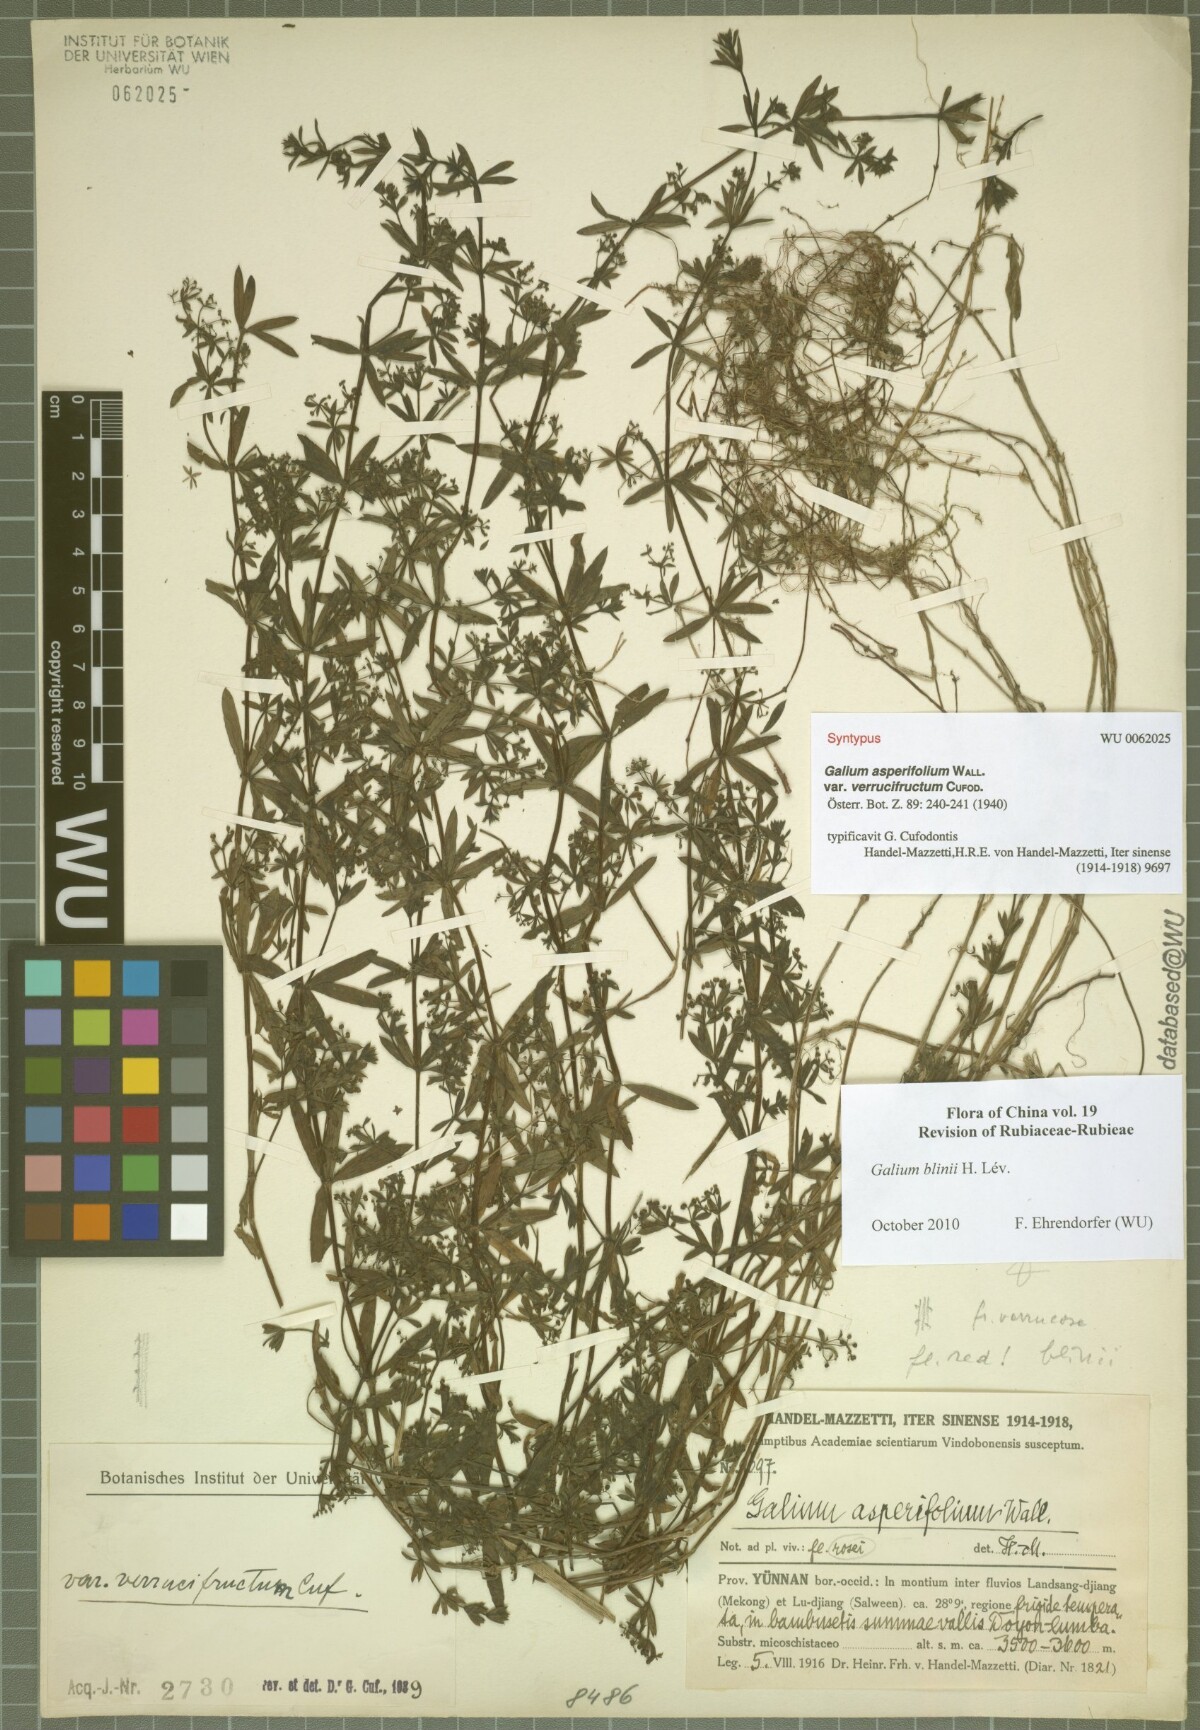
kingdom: Plantae
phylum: Tracheophyta
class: Magnoliopsida
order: Gentianales
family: Rubiaceae
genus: Galium
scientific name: Galium asperifolium
